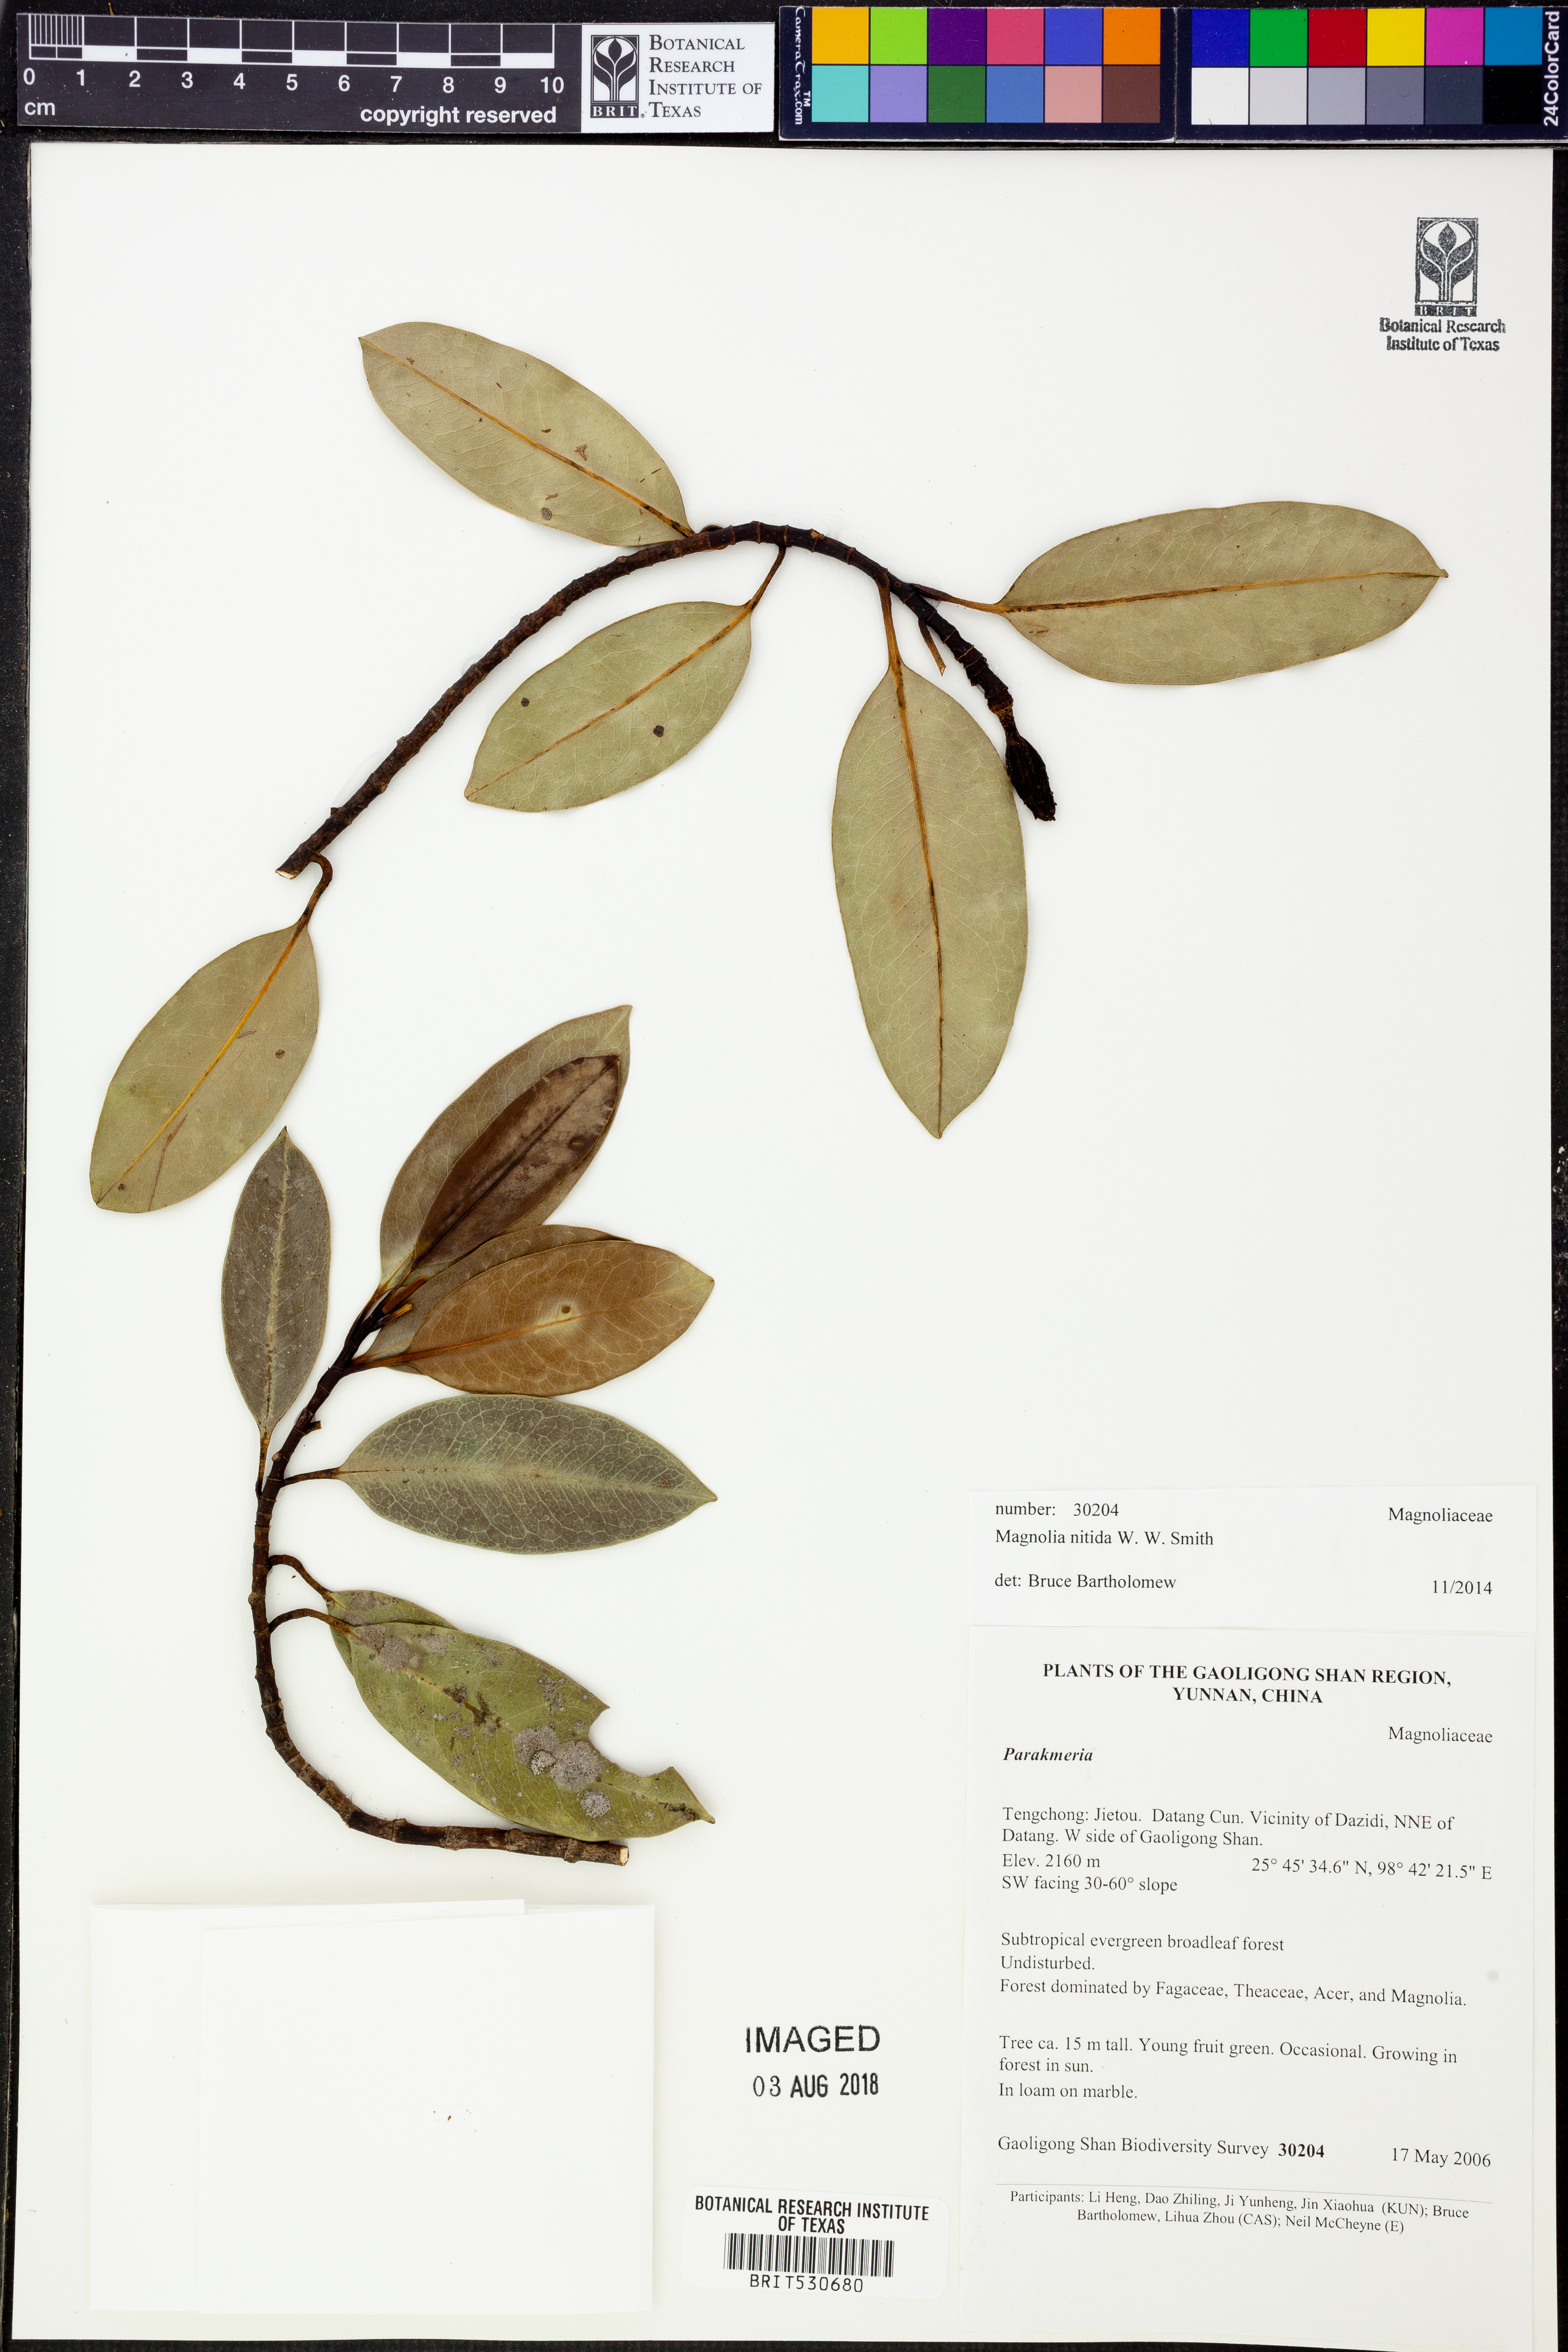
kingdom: Plantae
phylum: Tracheophyta
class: Magnoliopsida
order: Magnoliales
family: Magnoliaceae
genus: Magnolia
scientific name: Magnolia nitida
